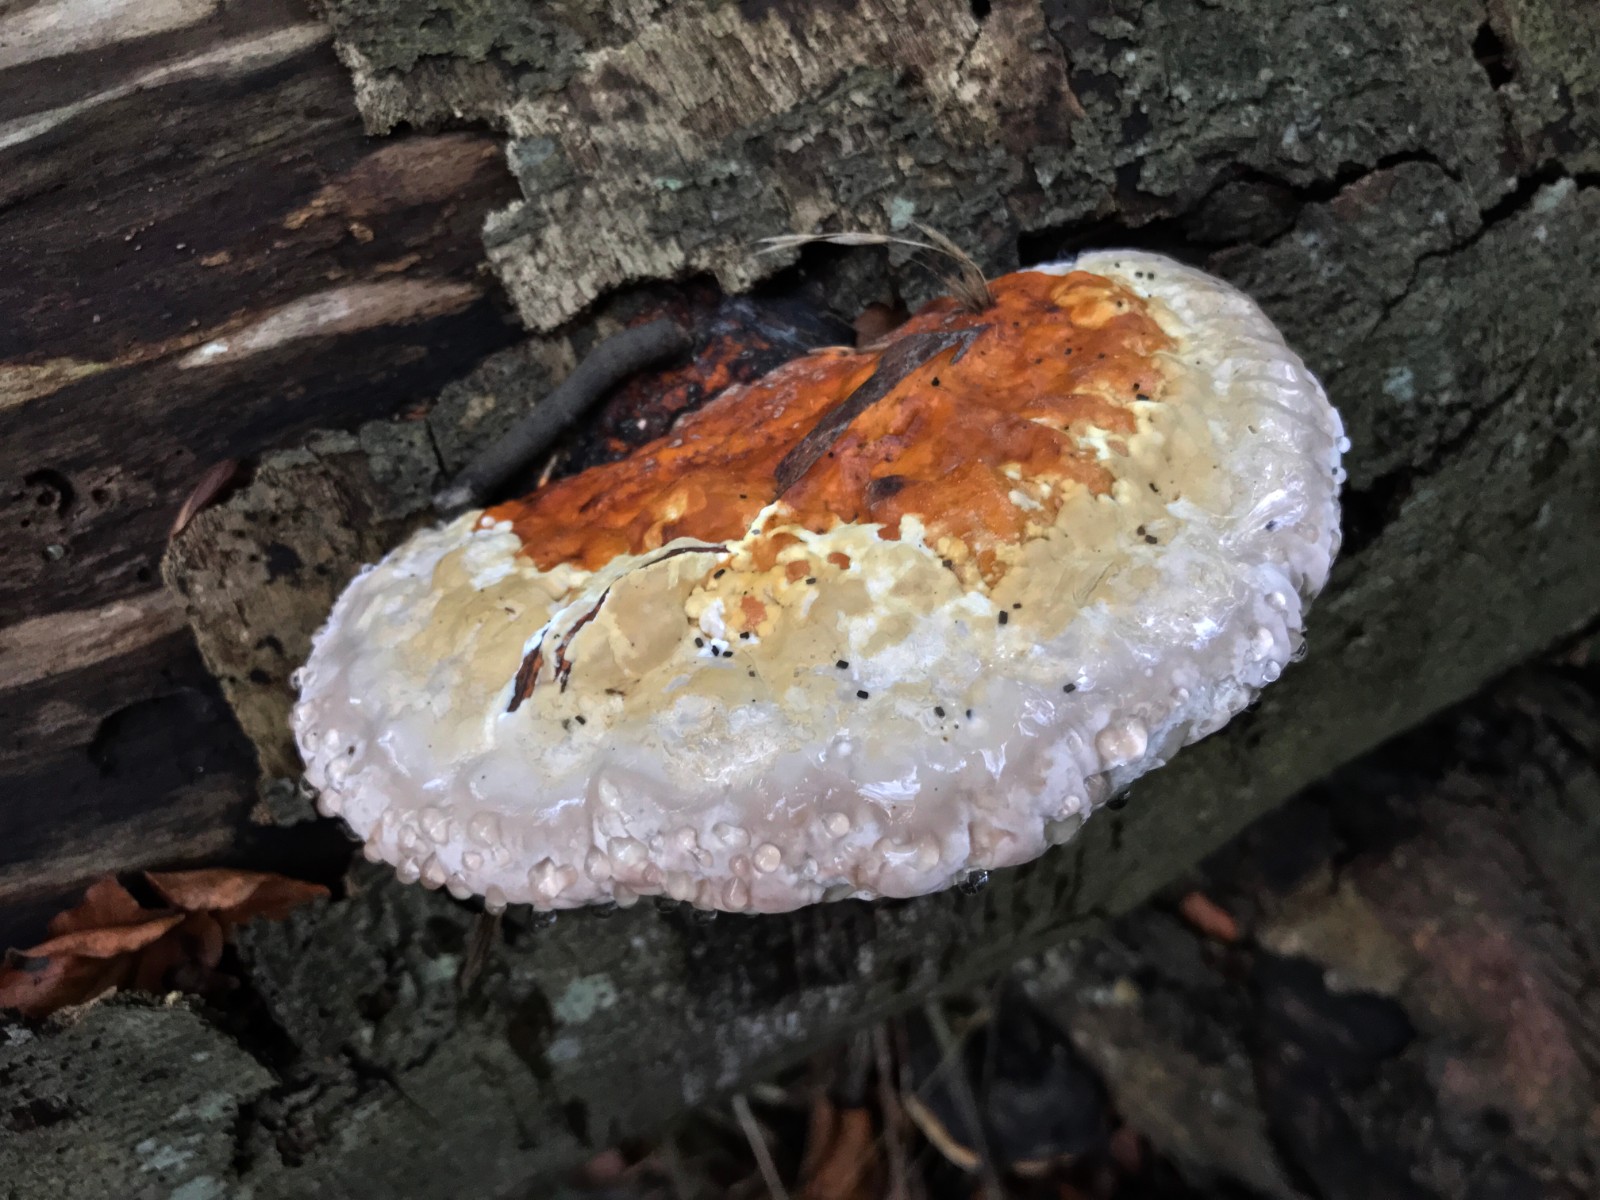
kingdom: Fungi
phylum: Basidiomycota
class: Agaricomycetes
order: Polyporales
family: Fomitopsidaceae
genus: Fomitopsis
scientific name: Fomitopsis pinicola
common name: randbæltet hovporesvamp
